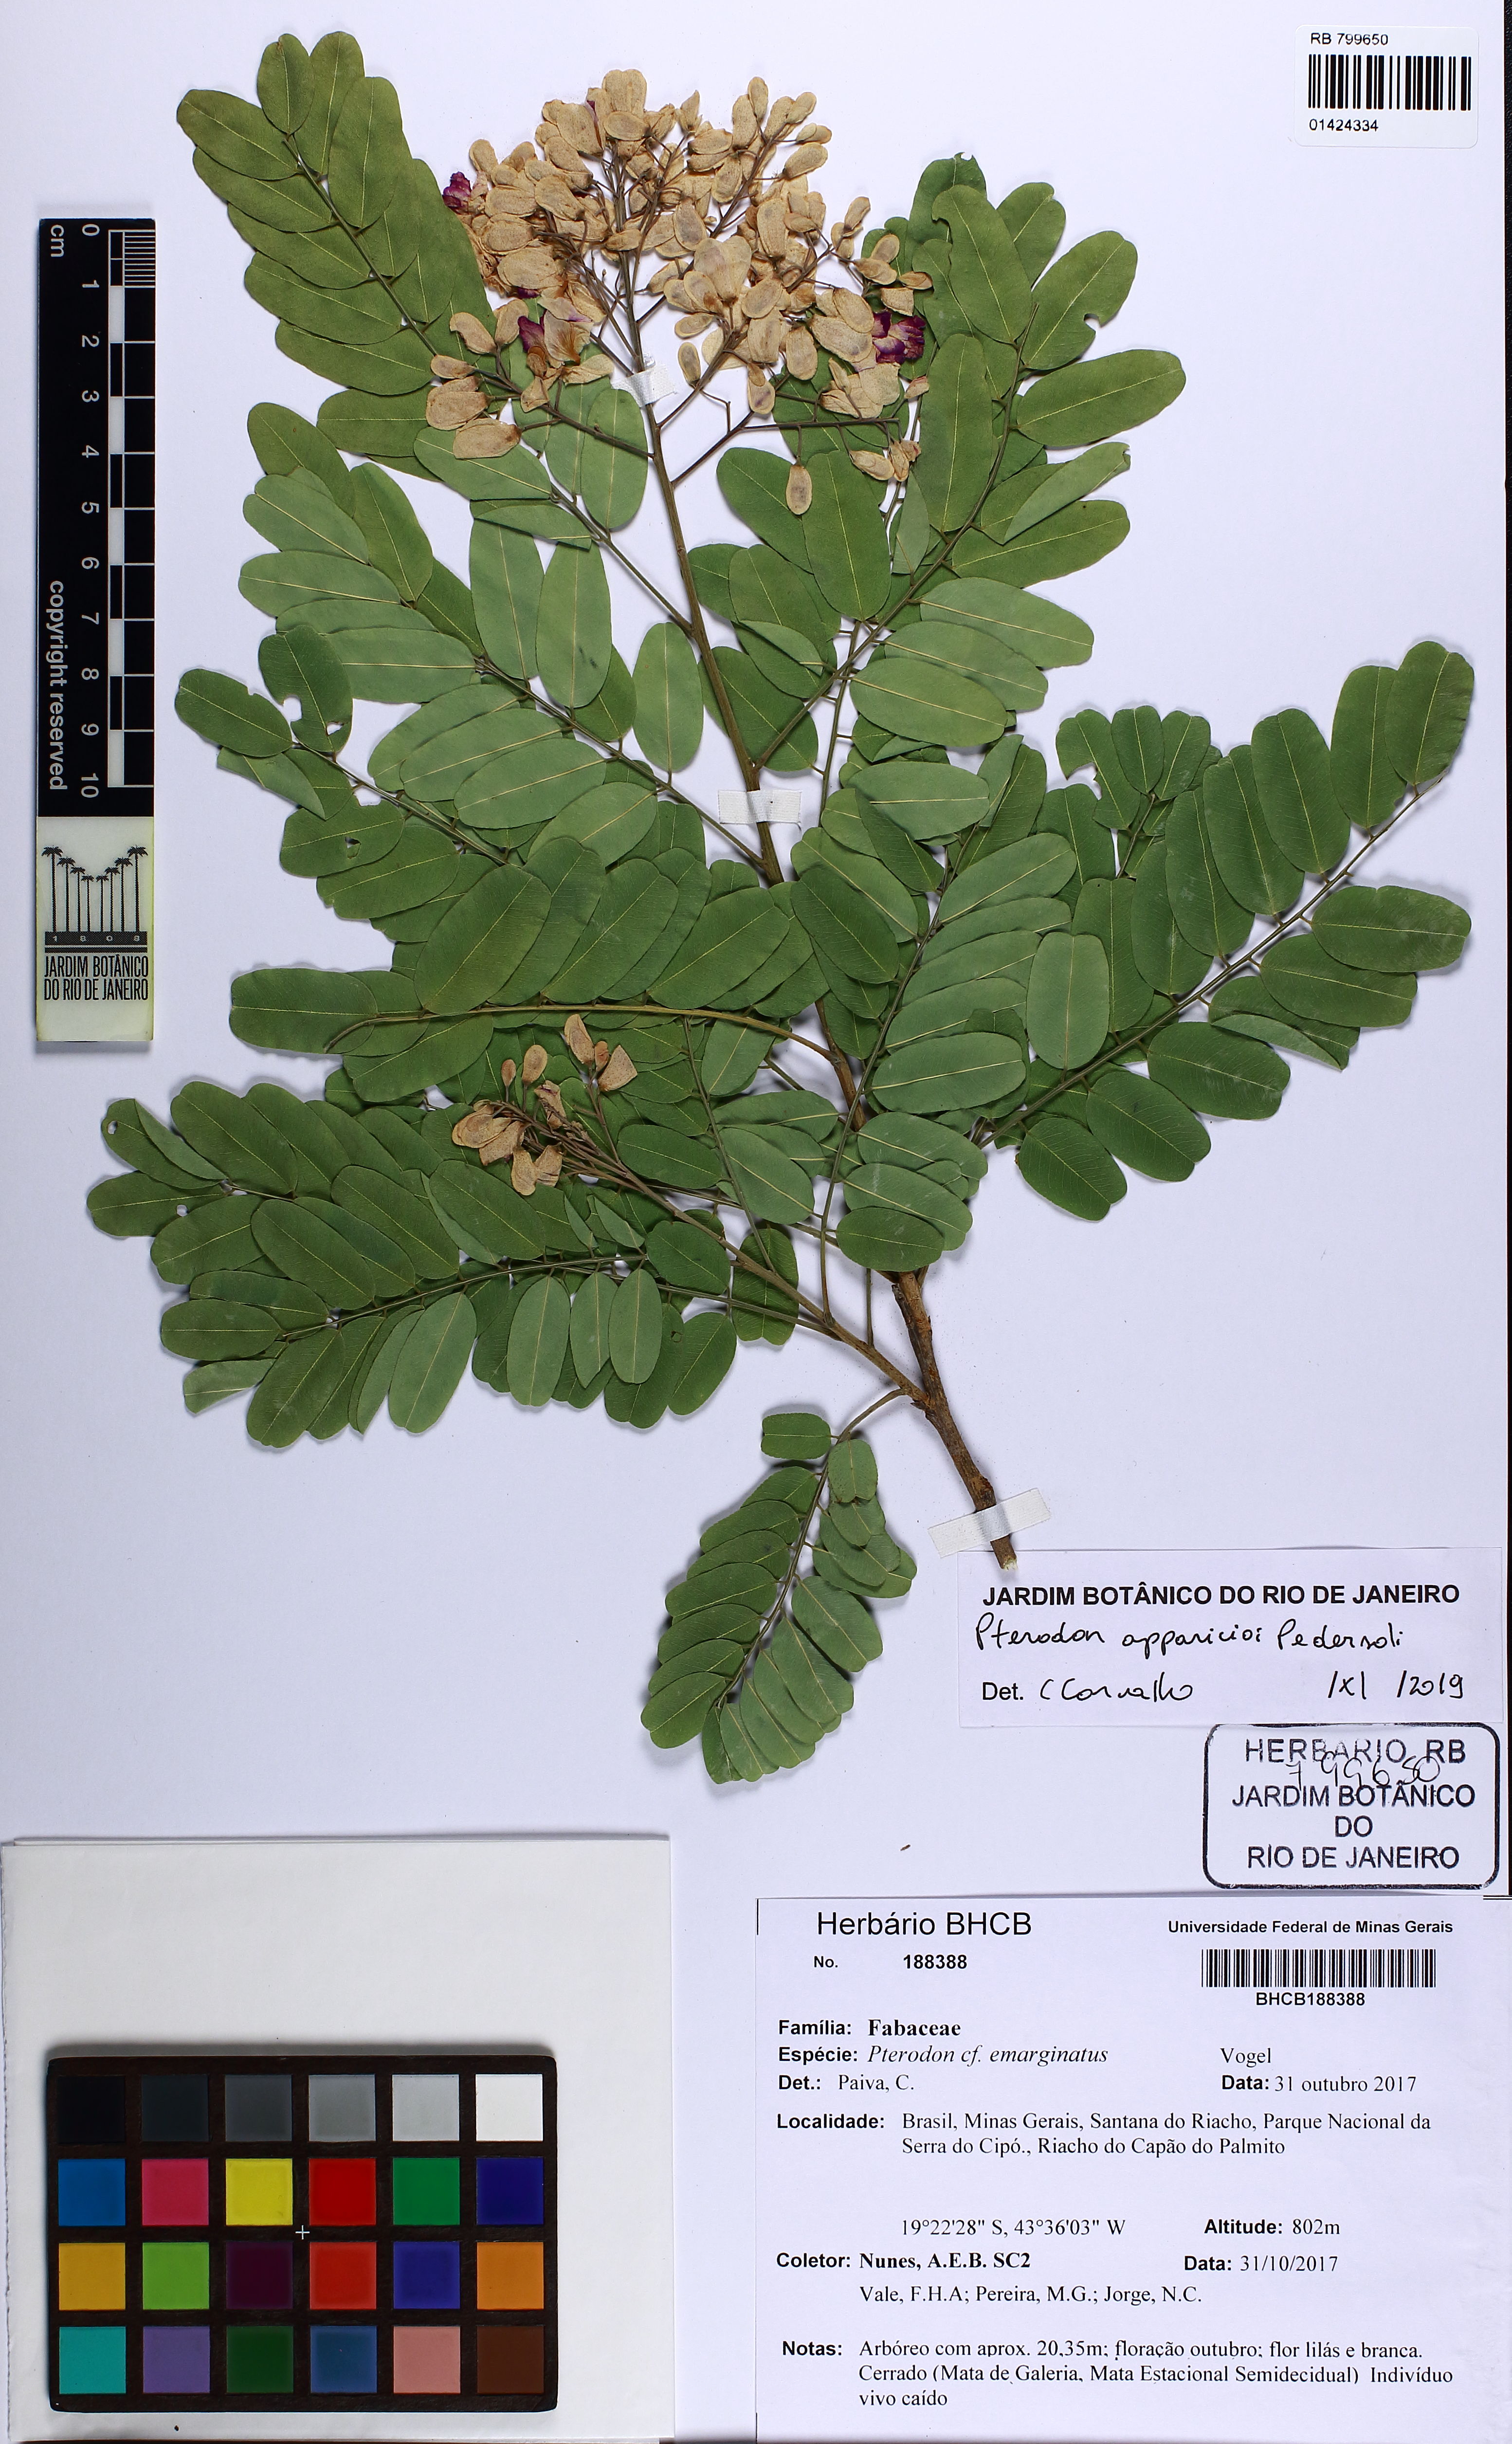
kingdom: Plantae
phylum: Tracheophyta
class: Magnoliopsida
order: Fabales
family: Fabaceae
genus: Pterodon
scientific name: Pterodon apparicioi
